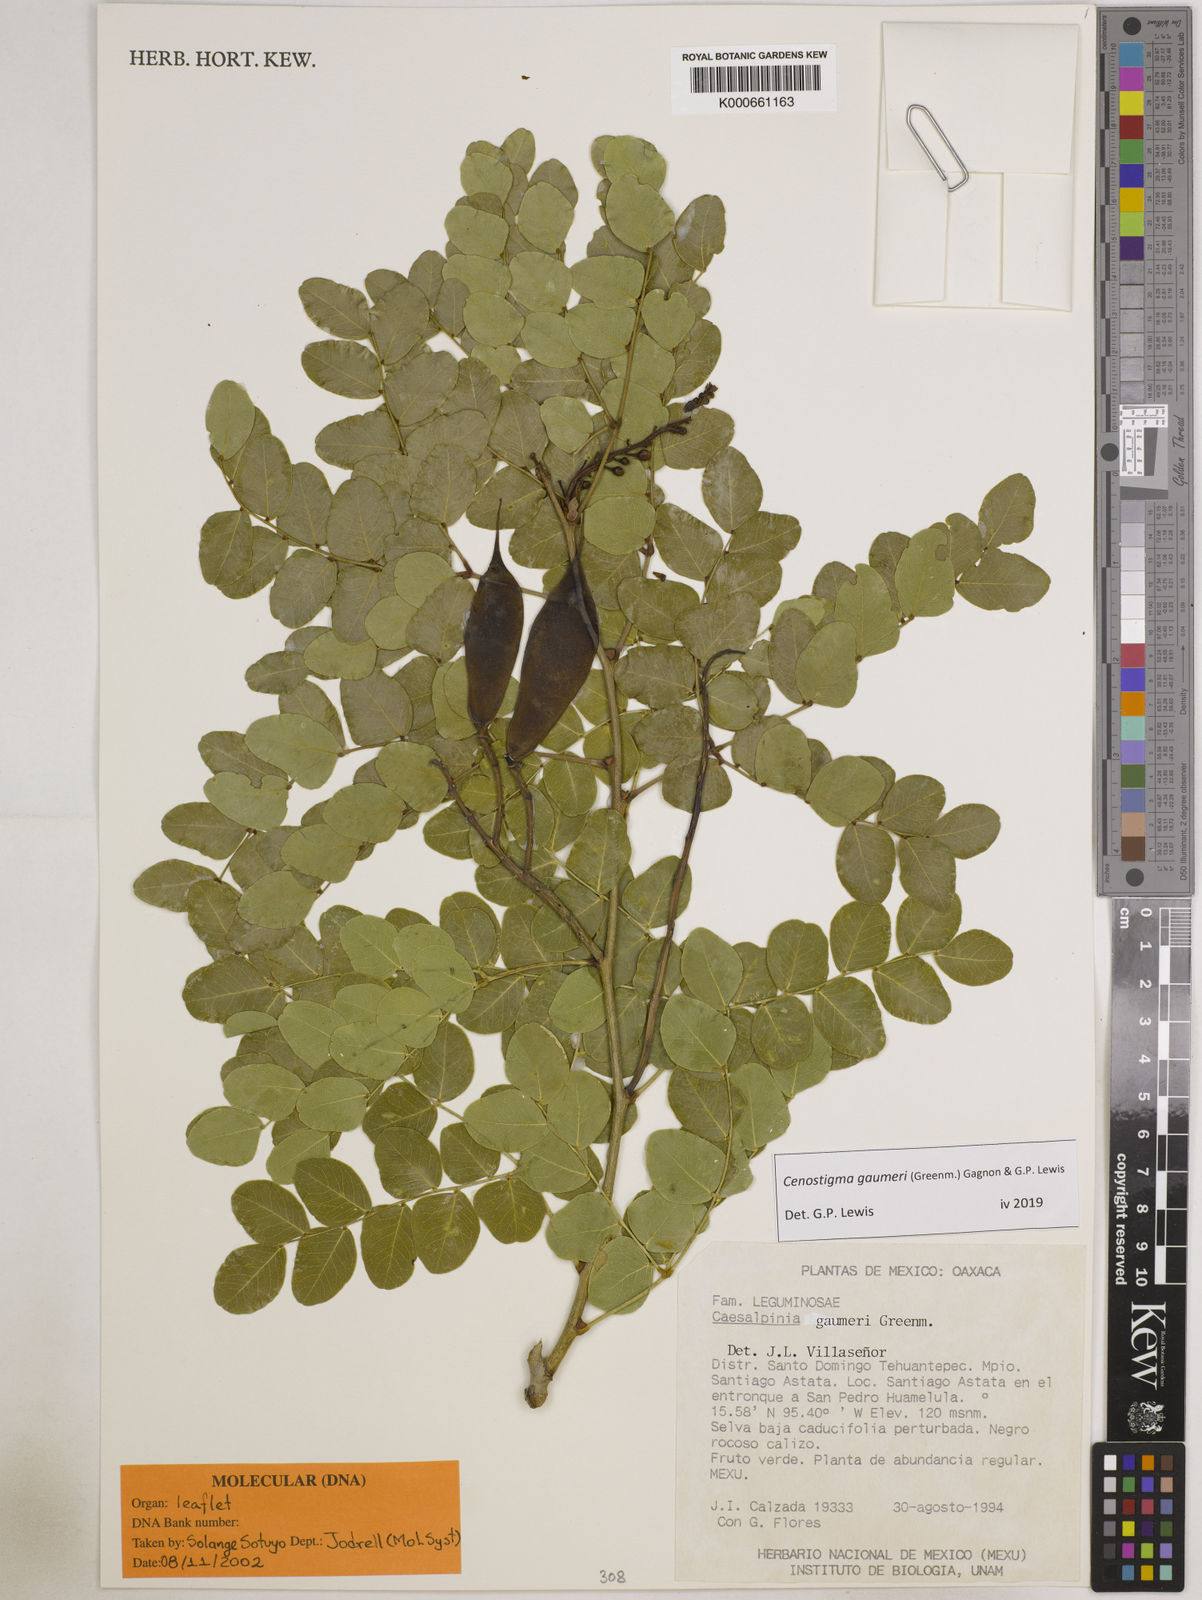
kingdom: Plantae
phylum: Tracheophyta
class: Magnoliopsida
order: Fabales
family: Fabaceae
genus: Cenostigma
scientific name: Cenostigma gaumeri
